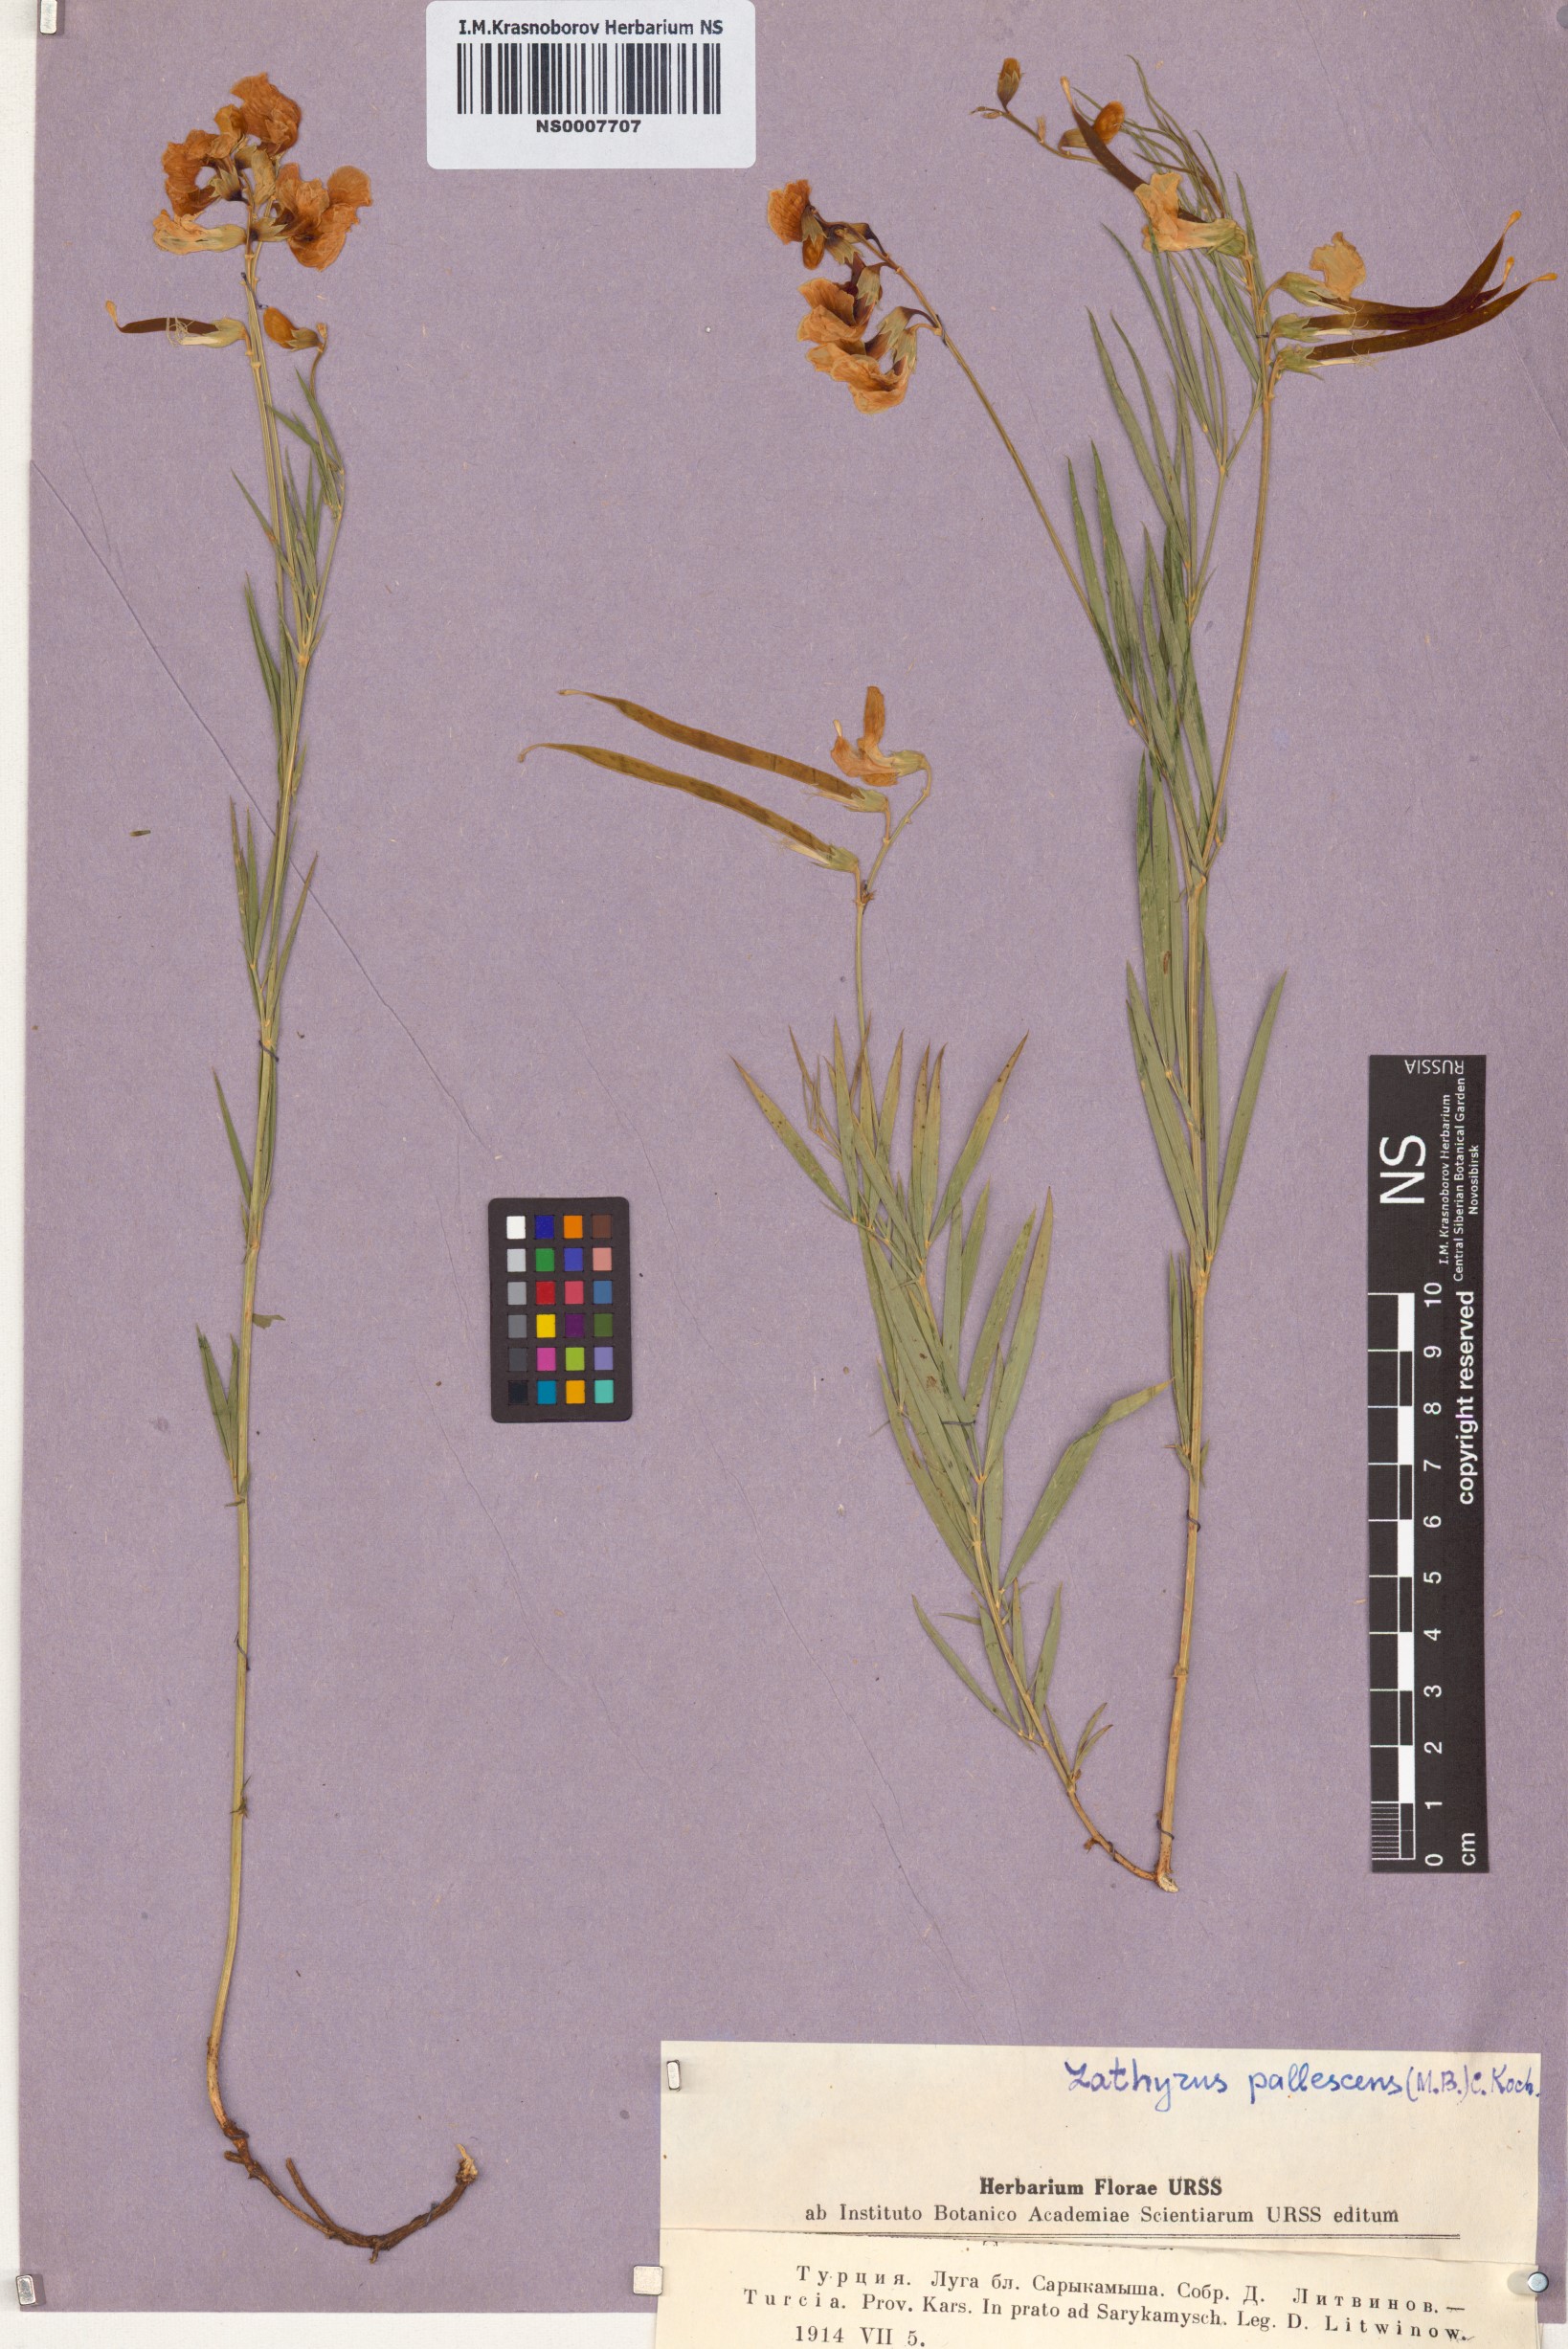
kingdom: Plantae
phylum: Tracheophyta
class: Magnoliopsida
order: Fabales
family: Fabaceae
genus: Lathyrus
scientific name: Lathyrus pallescens
